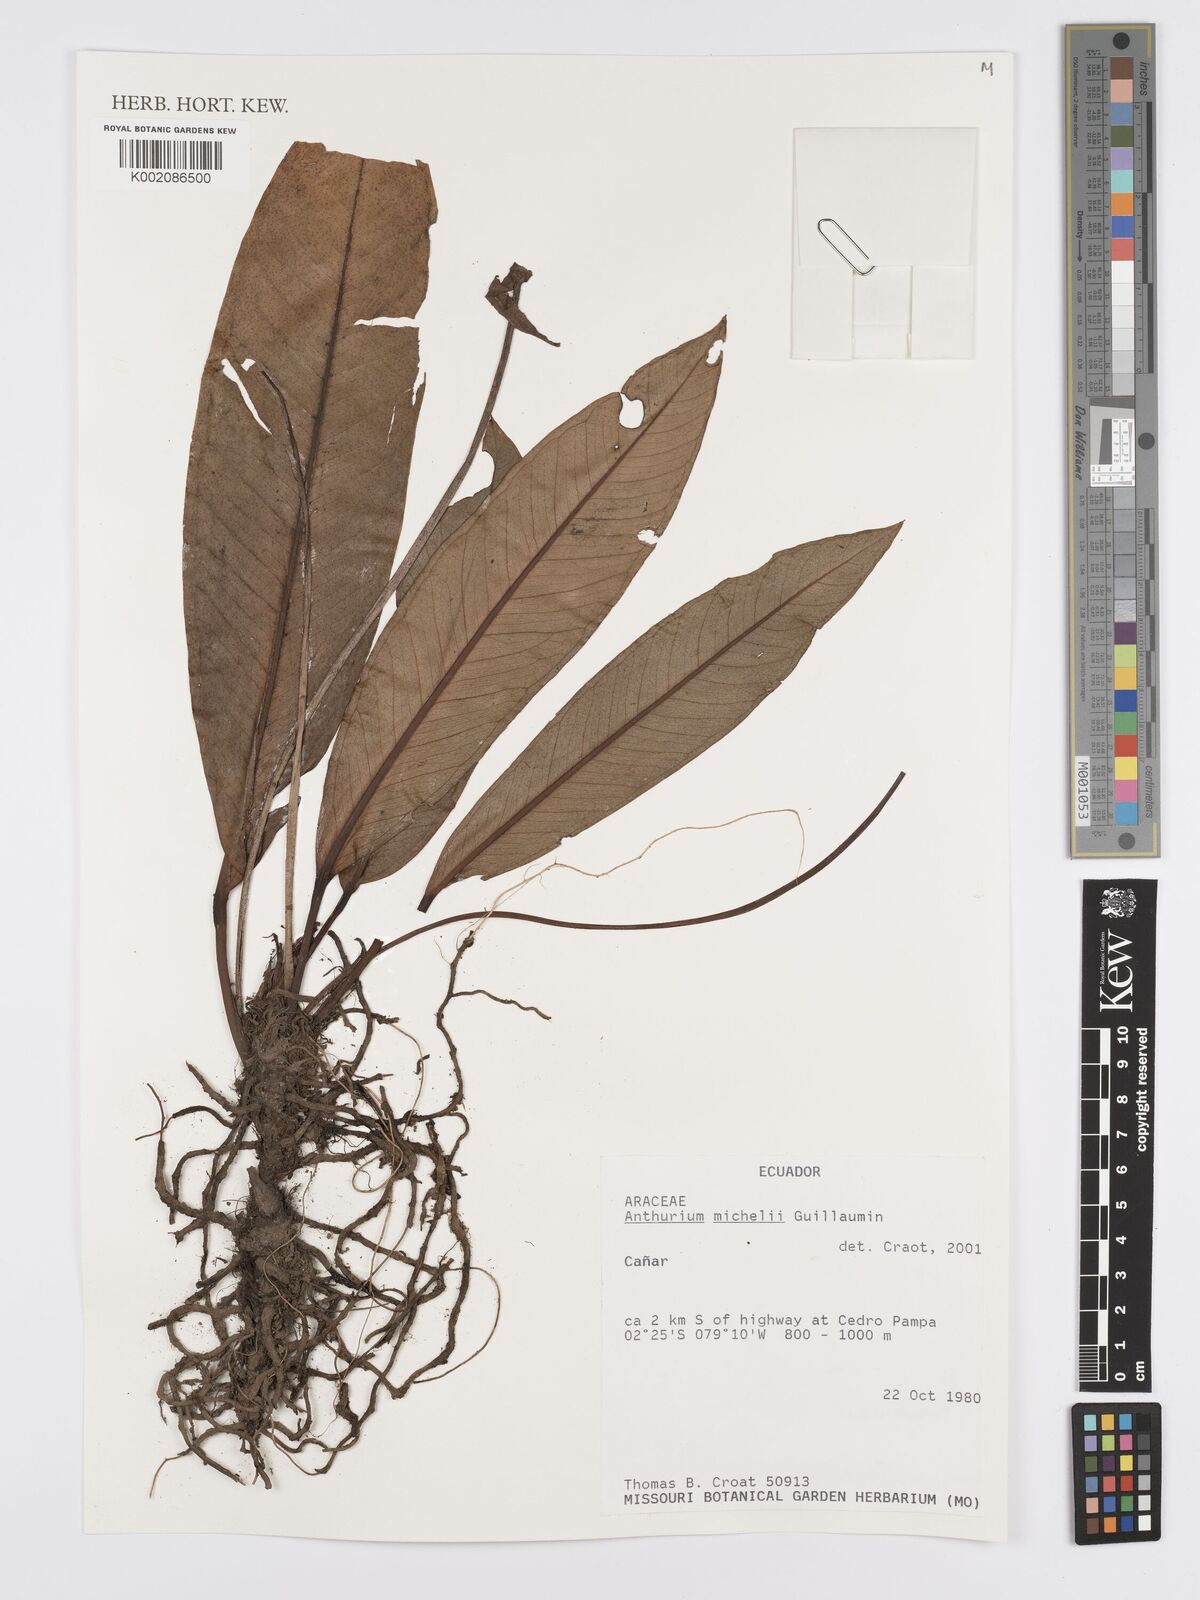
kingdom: Plantae
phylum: Tracheophyta
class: Liliopsida
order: Alismatales
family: Araceae
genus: Anthurium
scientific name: Anthurium michelii
